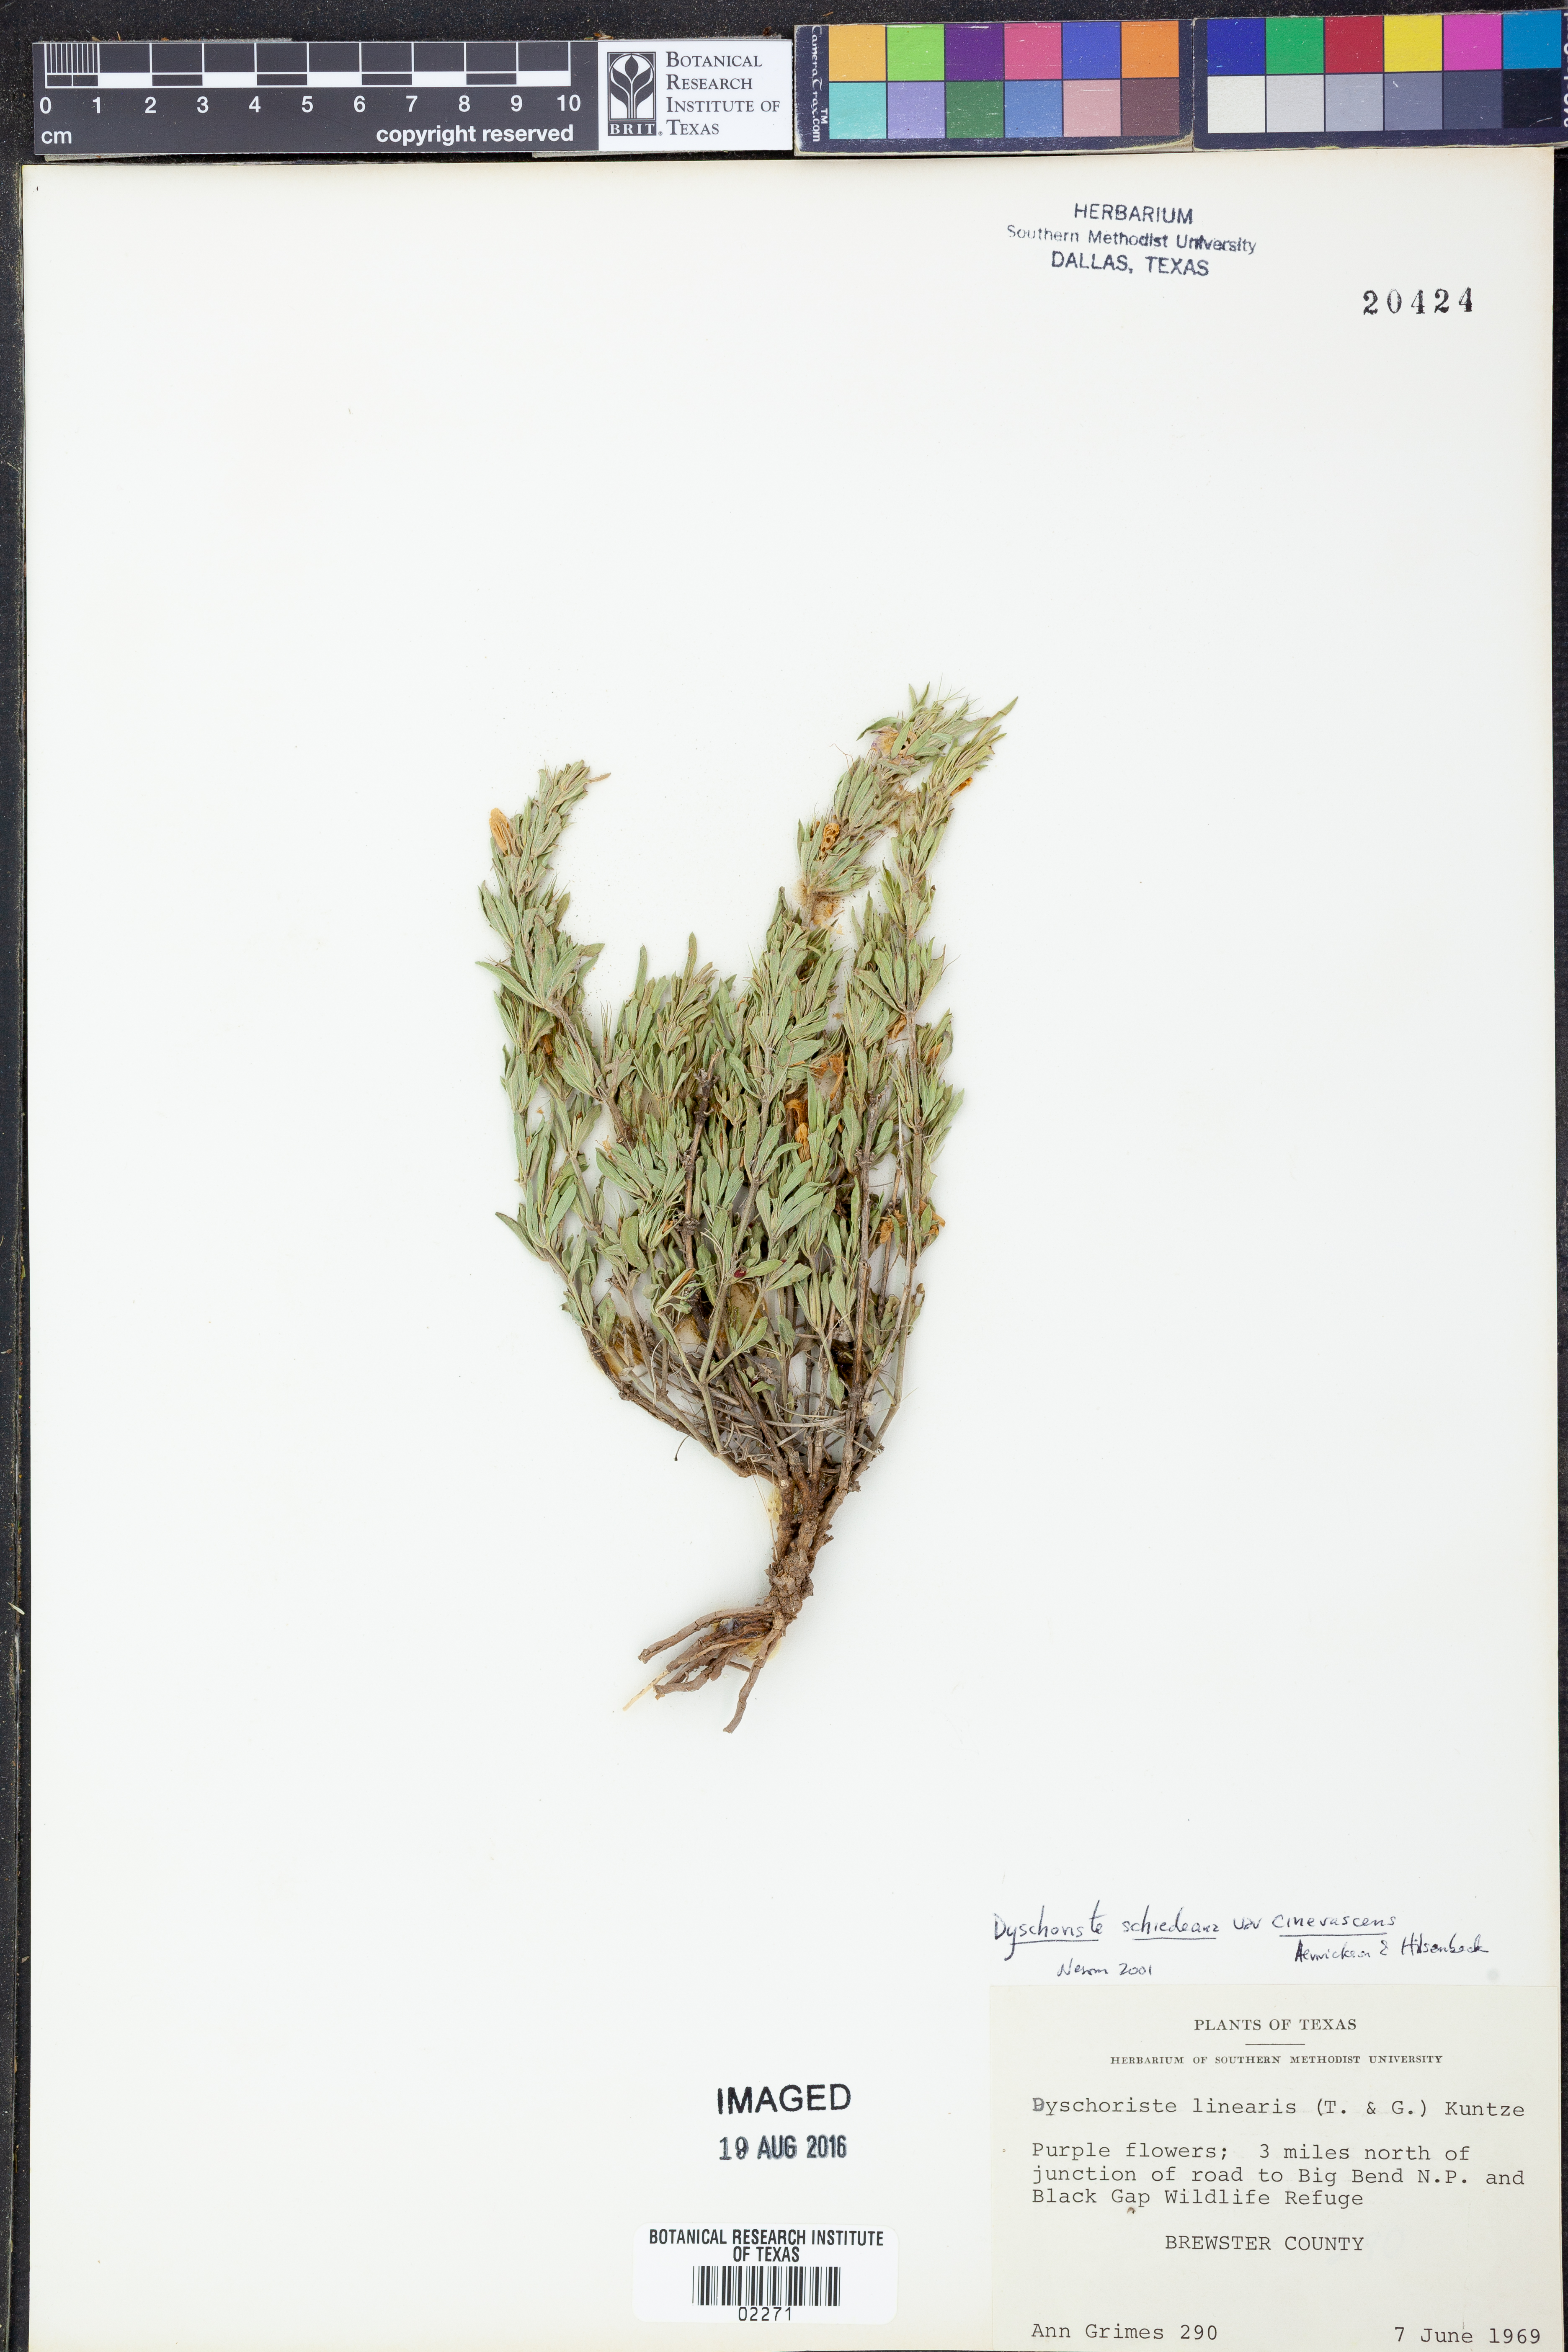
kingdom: Plantae
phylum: Tracheophyta
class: Magnoliopsida
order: Lamiales
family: Acanthaceae
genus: Dyschoriste
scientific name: Dyschoriste cinerascens
